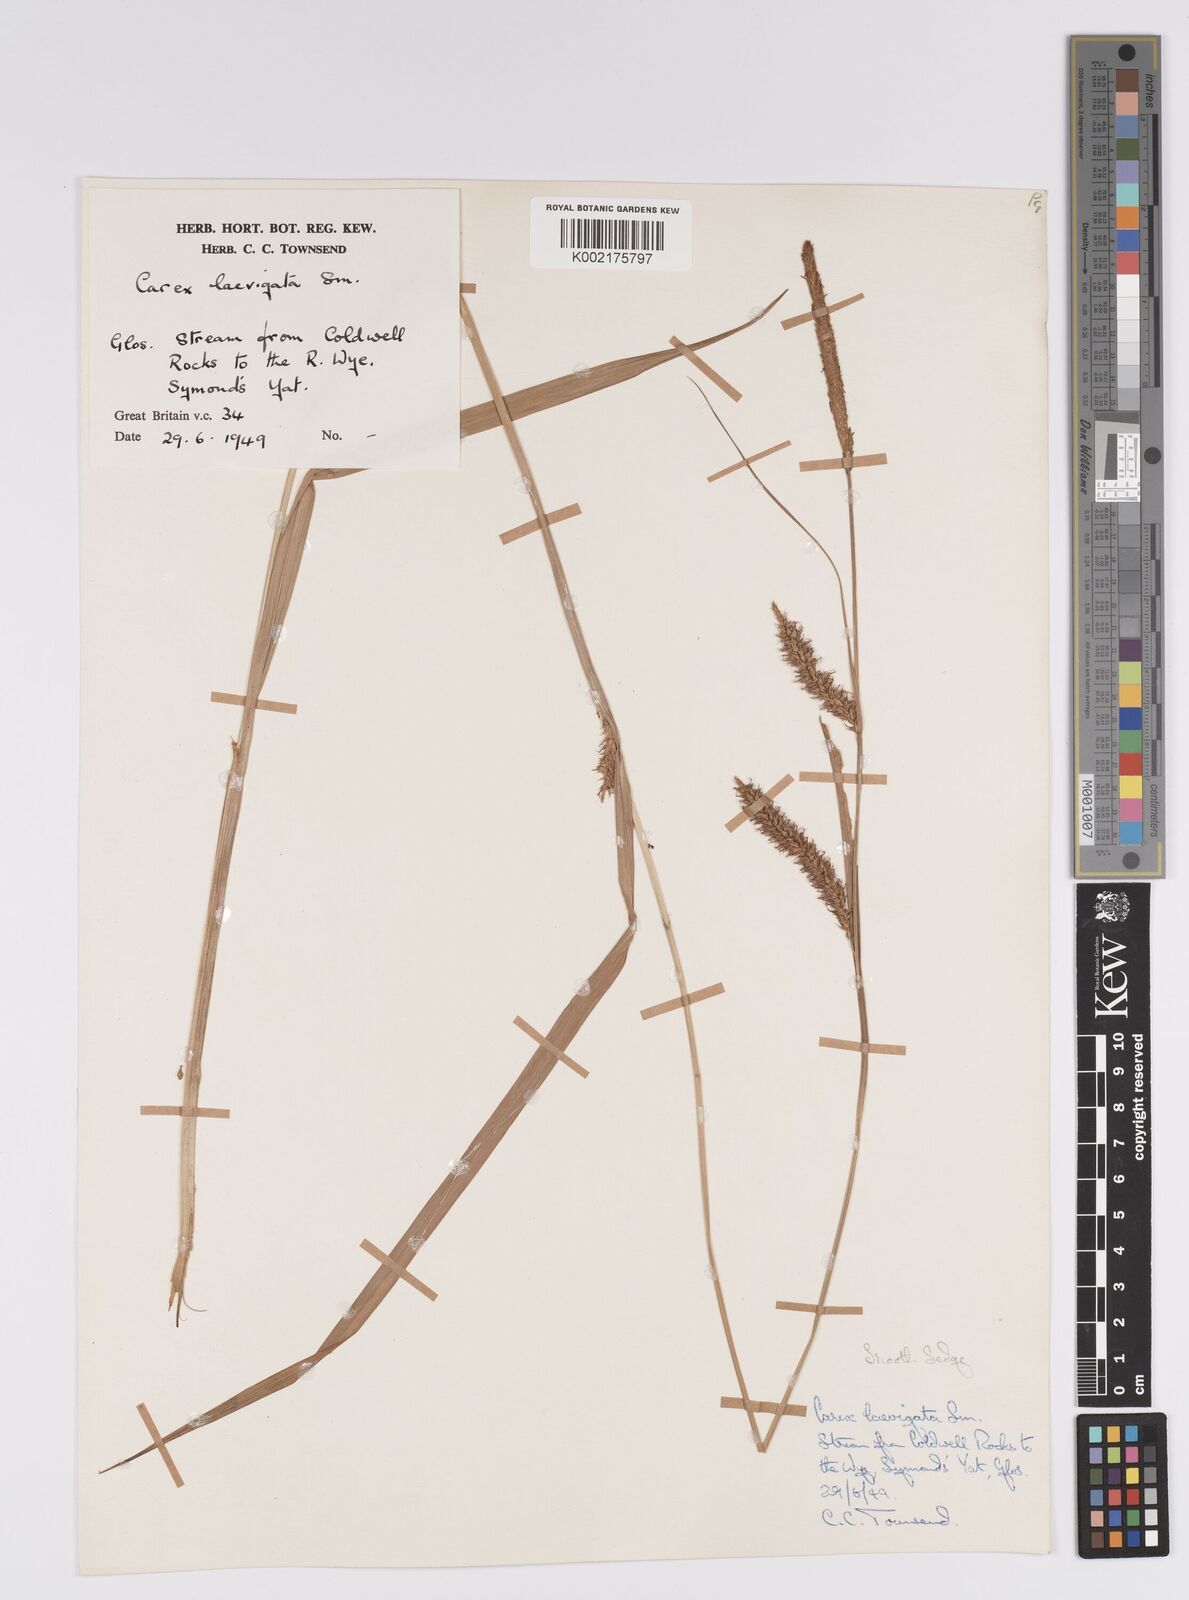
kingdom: Plantae
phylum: Tracheophyta
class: Liliopsida
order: Poales
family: Cyperaceae
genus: Carex
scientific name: Carex laevigata
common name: Smooth-stalked sedge
